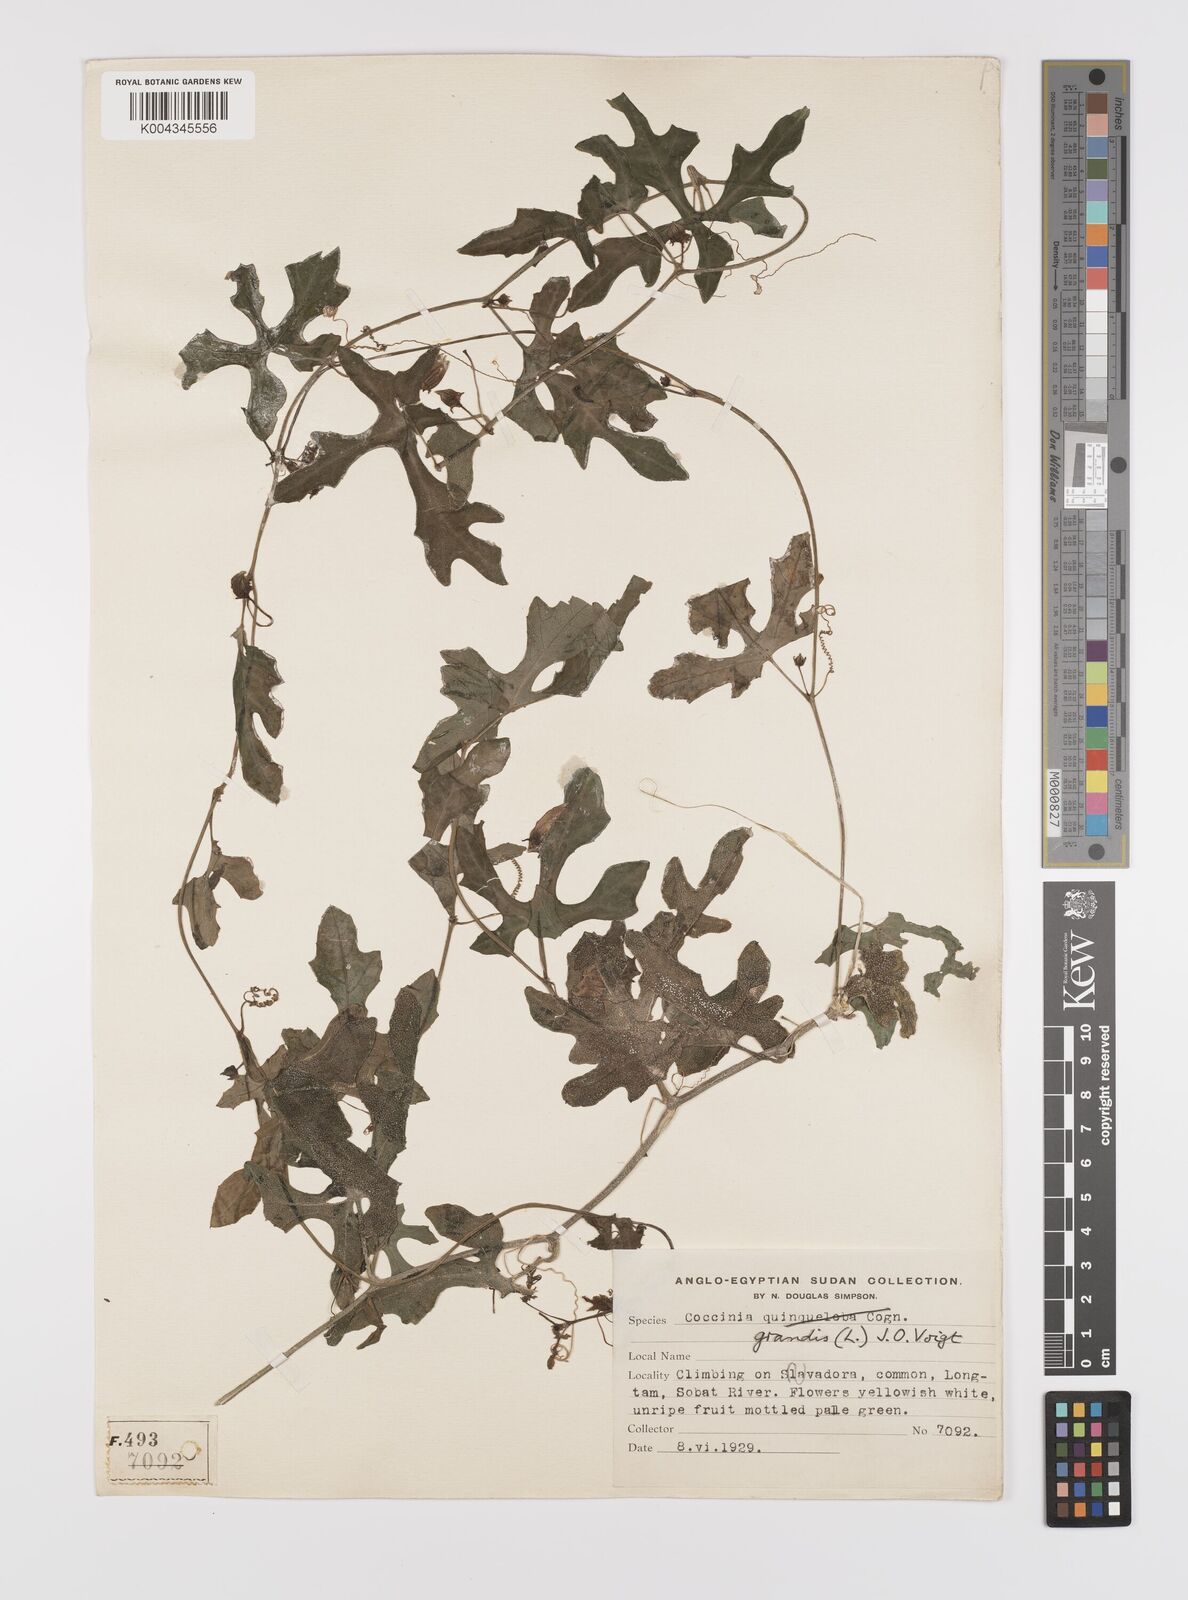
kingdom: Plantae
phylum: Tracheophyta
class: Magnoliopsida
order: Cucurbitales
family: Cucurbitaceae
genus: Coccinia
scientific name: Coccinia grandis
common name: Ivy gourd
